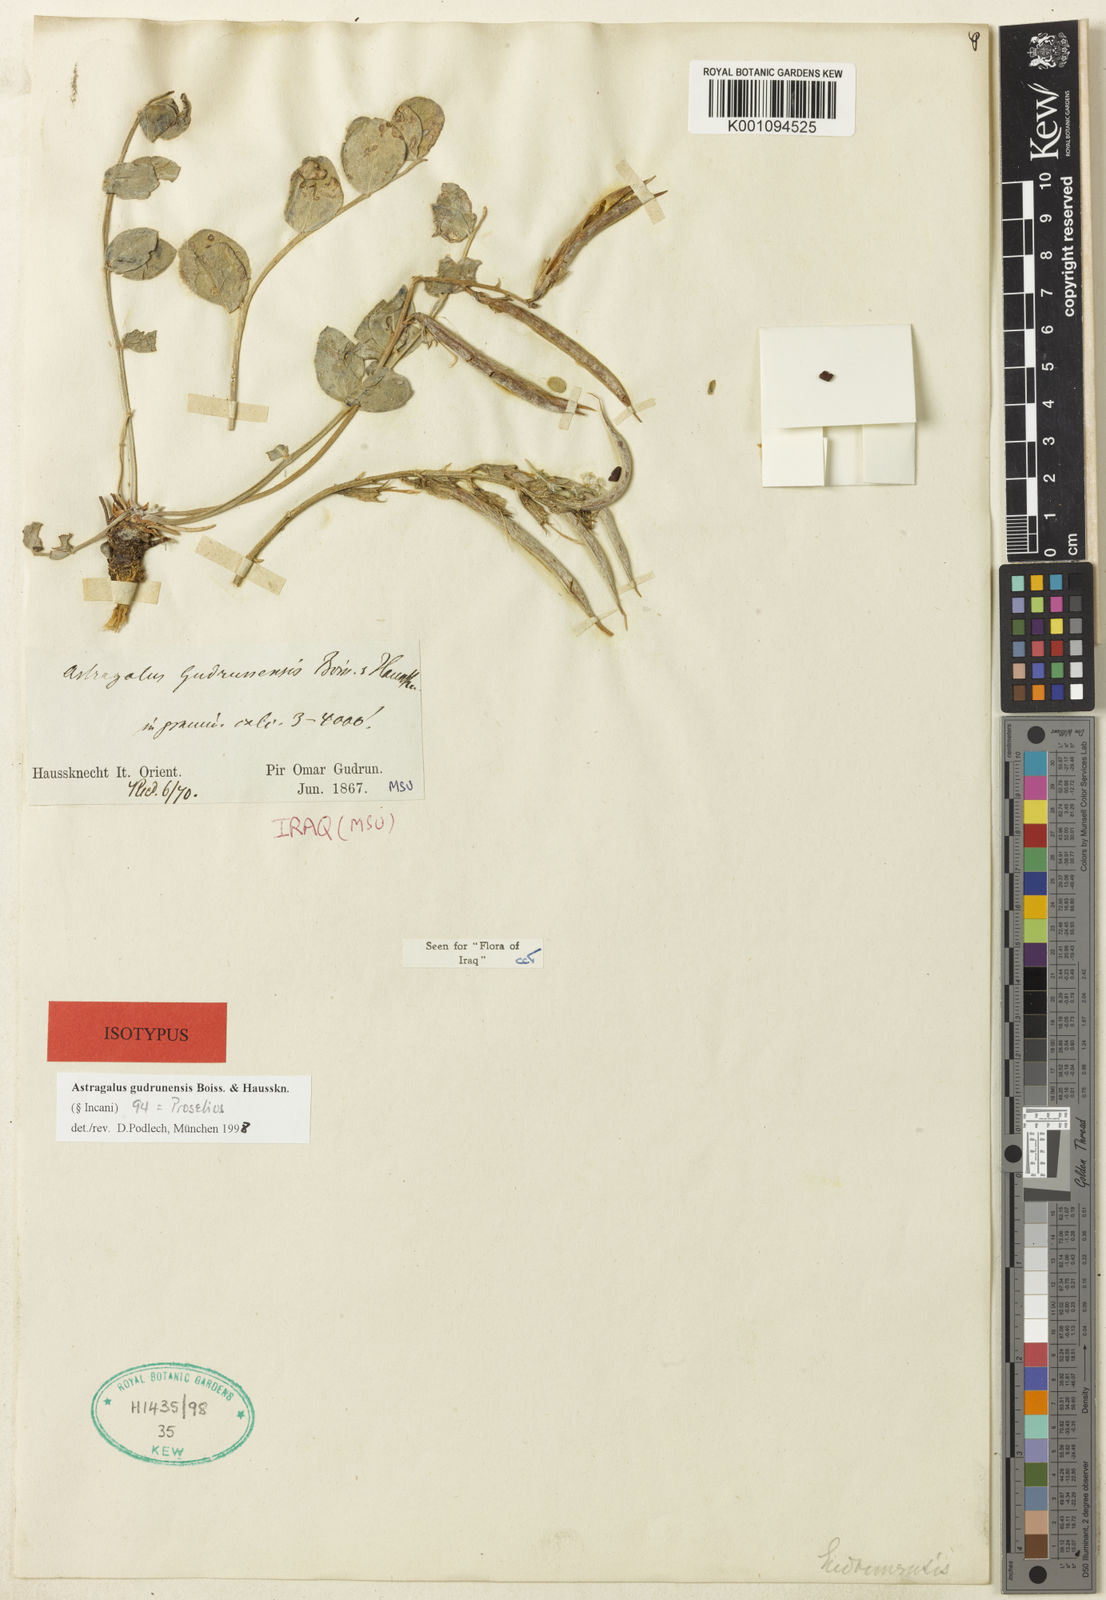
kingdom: Plantae
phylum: Tracheophyta
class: Magnoliopsida
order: Fabales
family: Fabaceae
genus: Astragalus
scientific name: Astragalus
